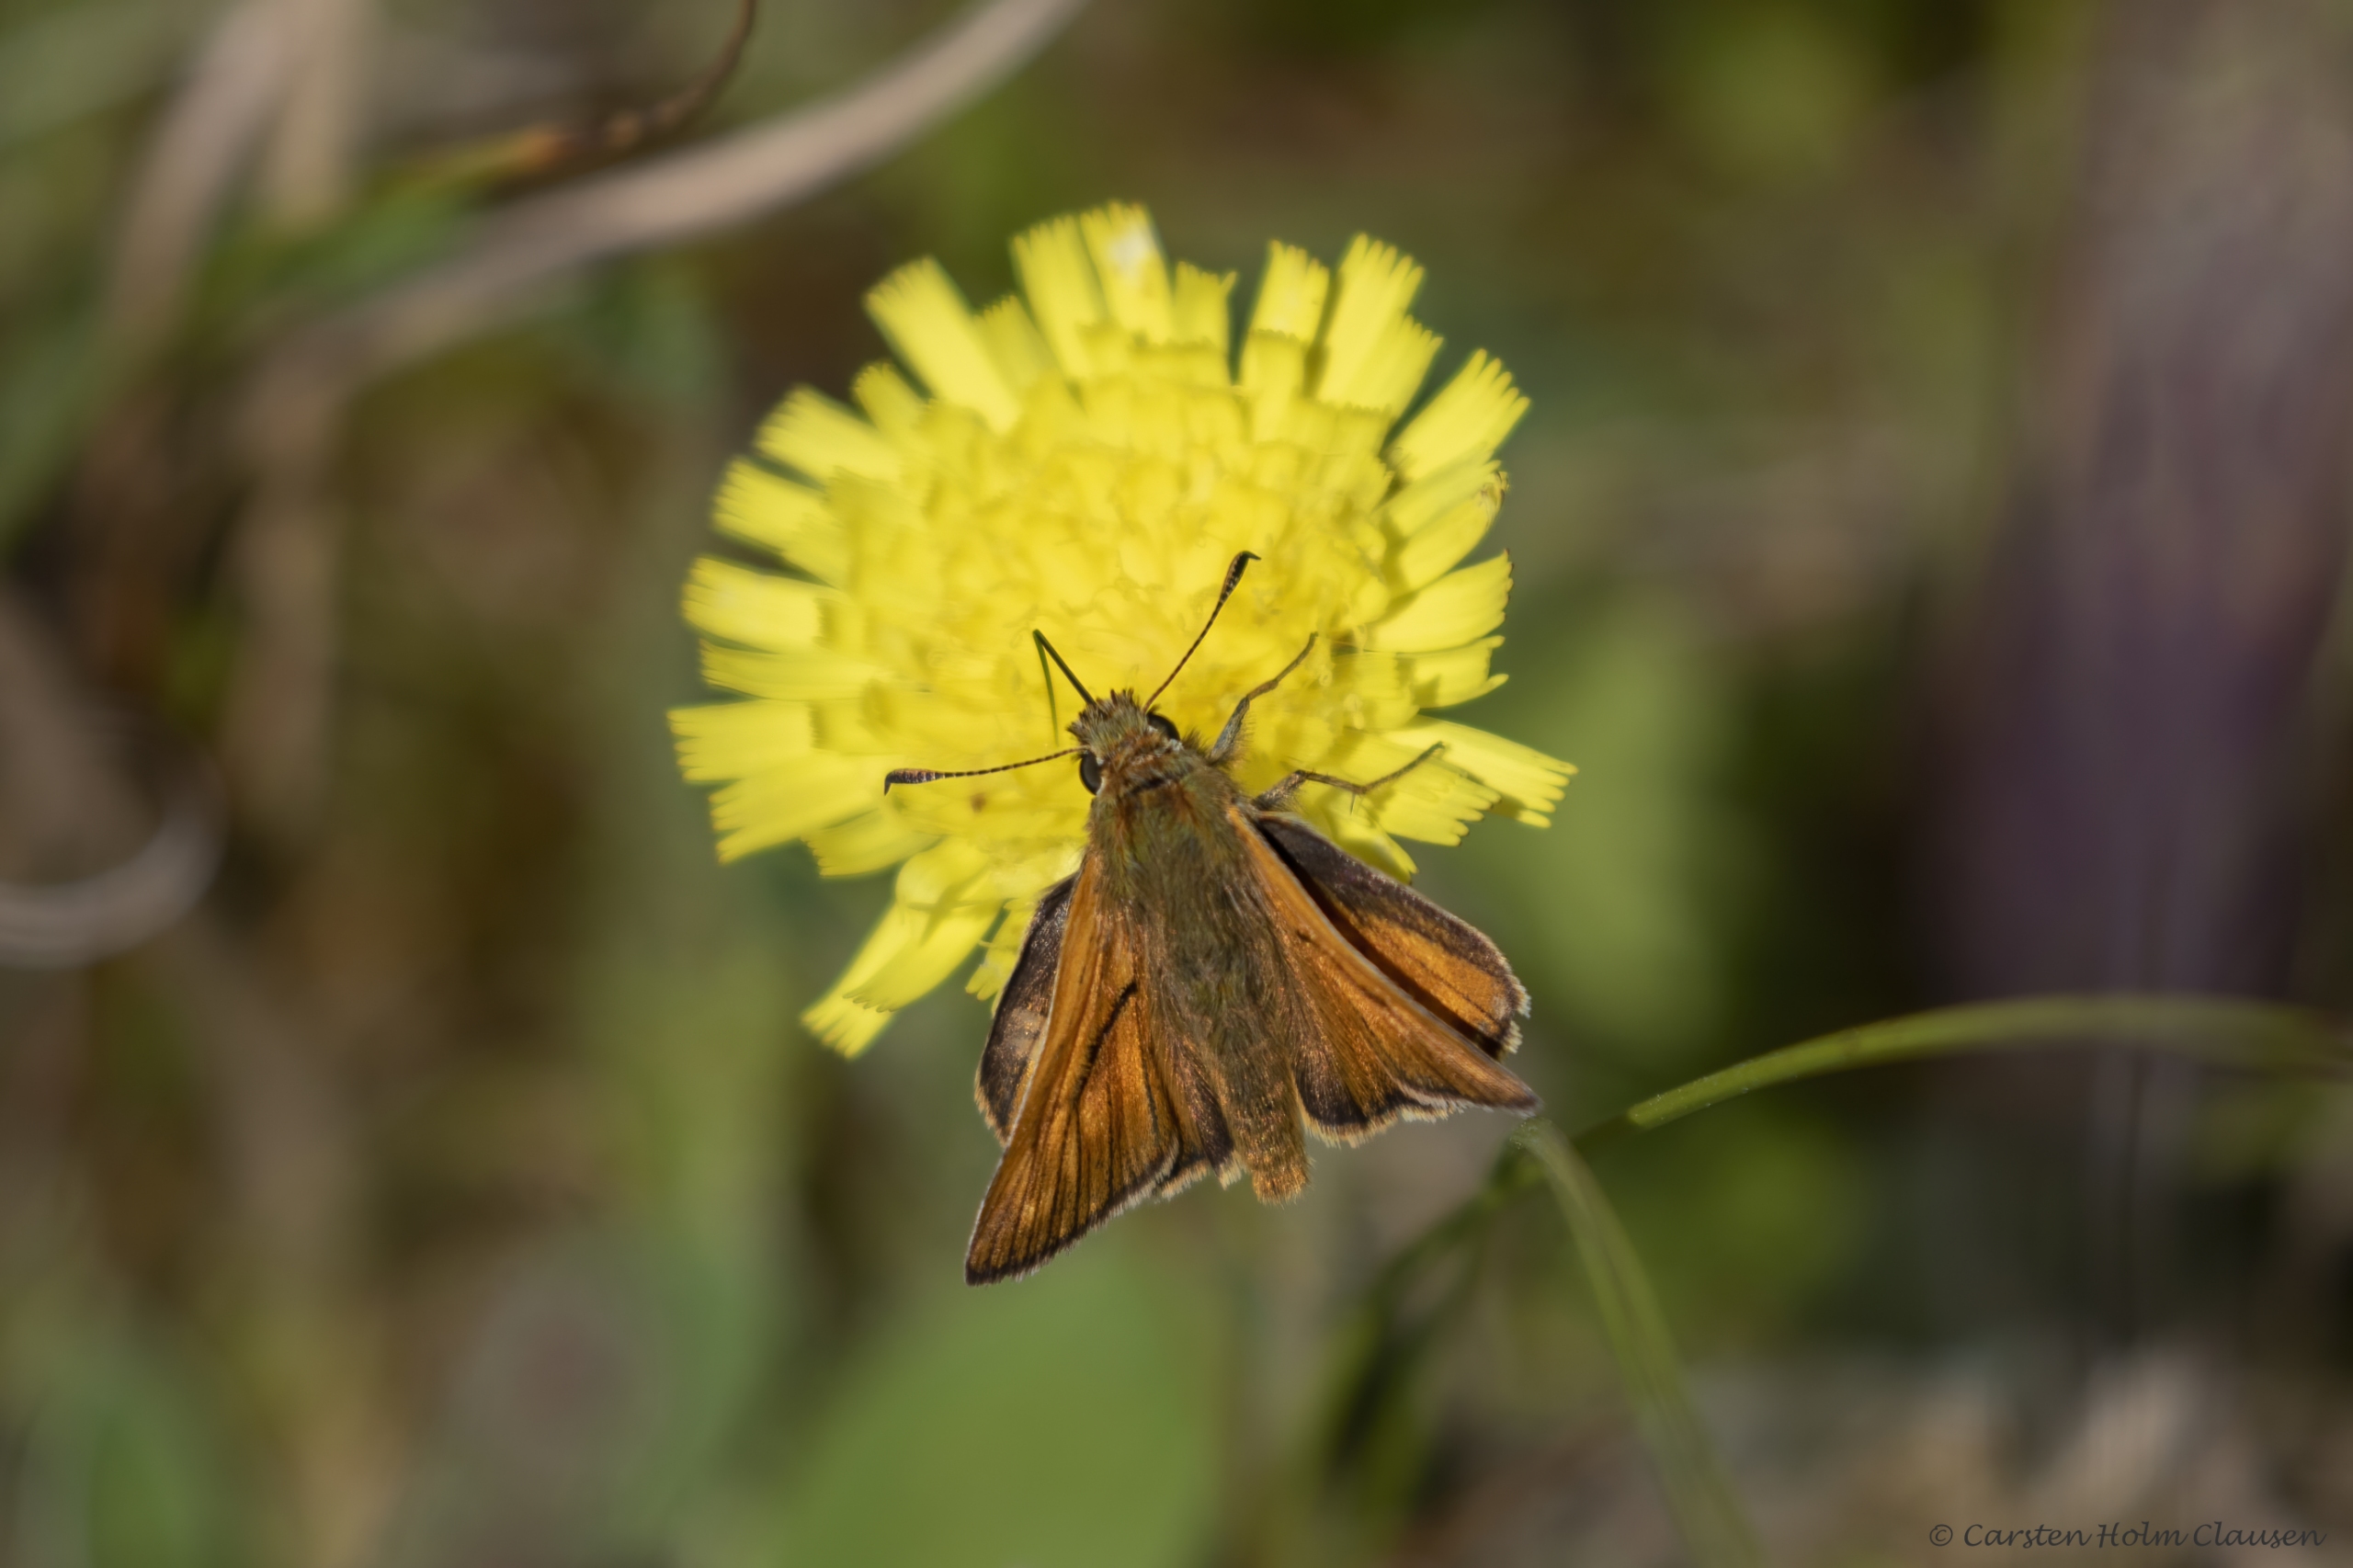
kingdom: Animalia
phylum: Arthropoda
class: Insecta
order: Lepidoptera
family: Hesperiidae
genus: Ochlodes
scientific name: Ochlodes venata
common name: Stor bredpande
